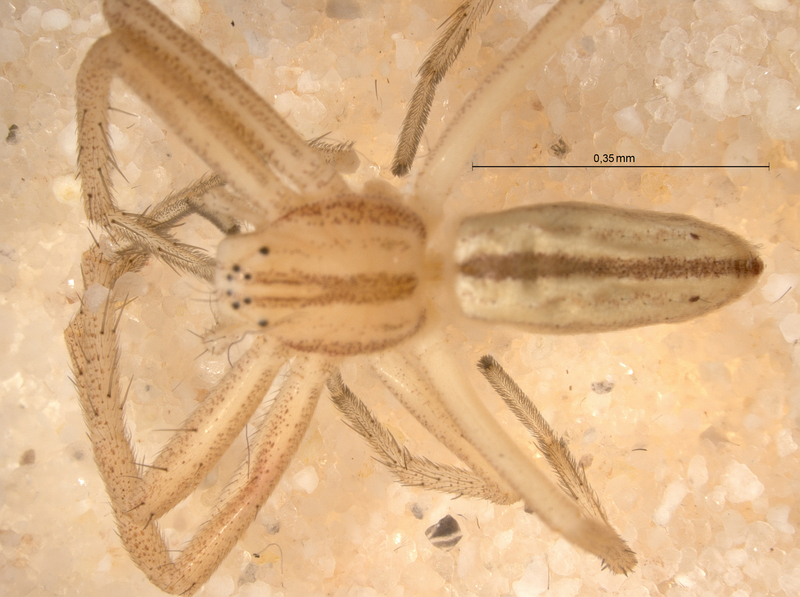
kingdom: Animalia
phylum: Arthropoda
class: Arachnida
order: Araneae
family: Philodromidae
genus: Tibellus
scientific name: Tibellus oblongus
